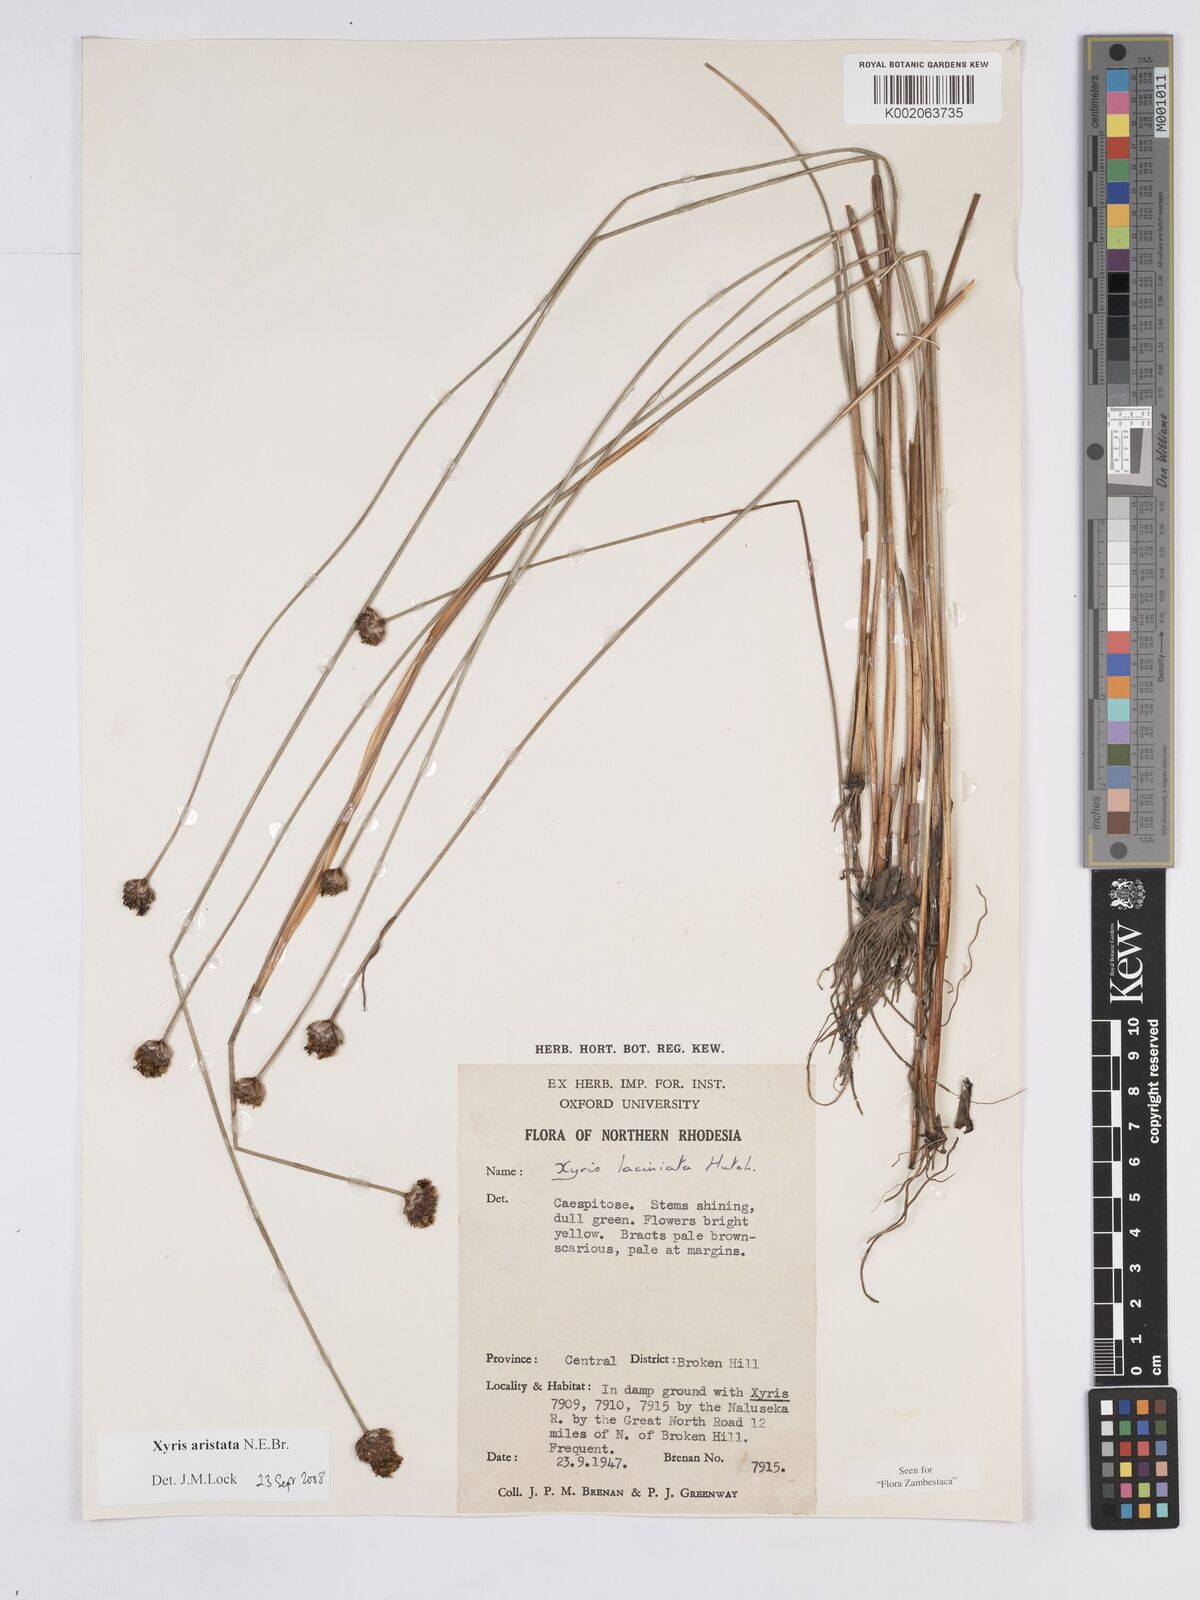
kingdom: Plantae
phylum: Tracheophyta
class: Liliopsida
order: Poales
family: Xyridaceae
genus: Xyris
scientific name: Xyris aristata
